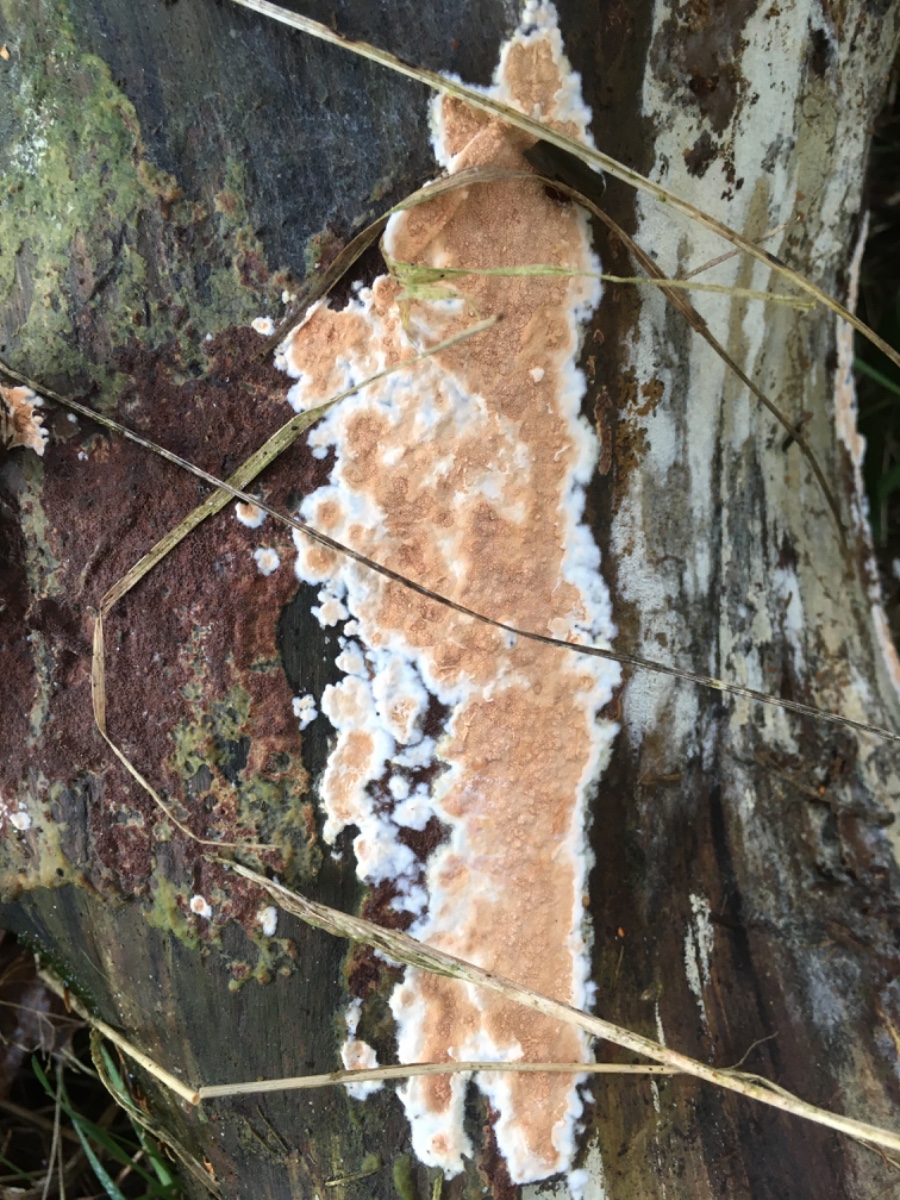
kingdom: Fungi
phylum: Basidiomycota
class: Agaricomycetes
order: Polyporales
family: Irpicaceae
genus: Meruliopsis
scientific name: Meruliopsis taxicola
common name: purpurbrun foldporesvamp
